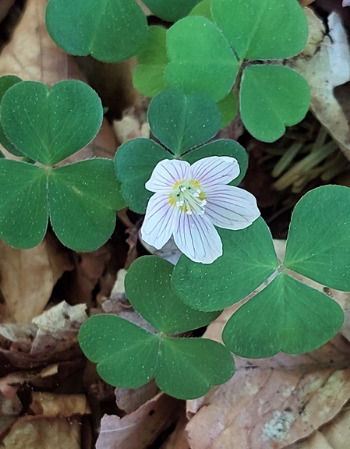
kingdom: Plantae
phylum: Tracheophyta
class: Magnoliopsida
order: Oxalidales
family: Oxalidaceae
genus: Oxalis
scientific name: Oxalis acetosella
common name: Skovsyre
